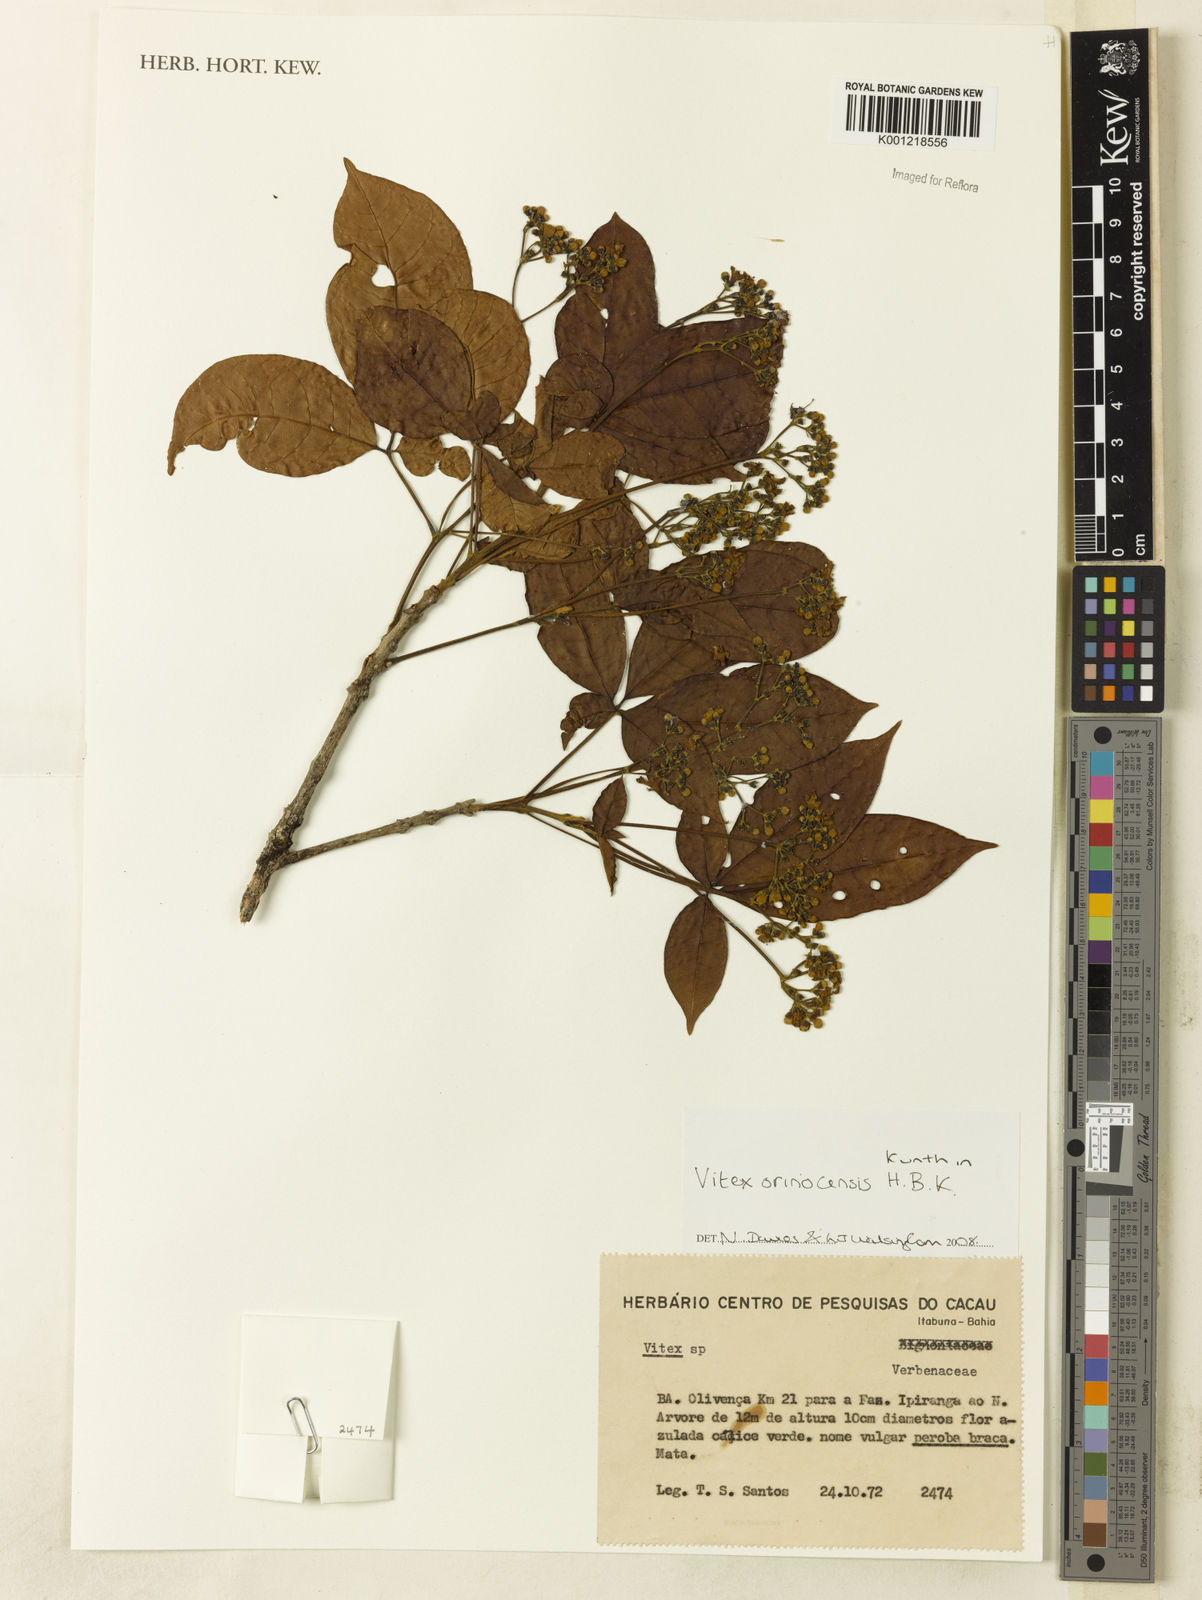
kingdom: Plantae
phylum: Tracheophyta
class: Magnoliopsida
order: Lamiales
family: Lamiaceae
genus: Vitex
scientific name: Vitex orinocensis
